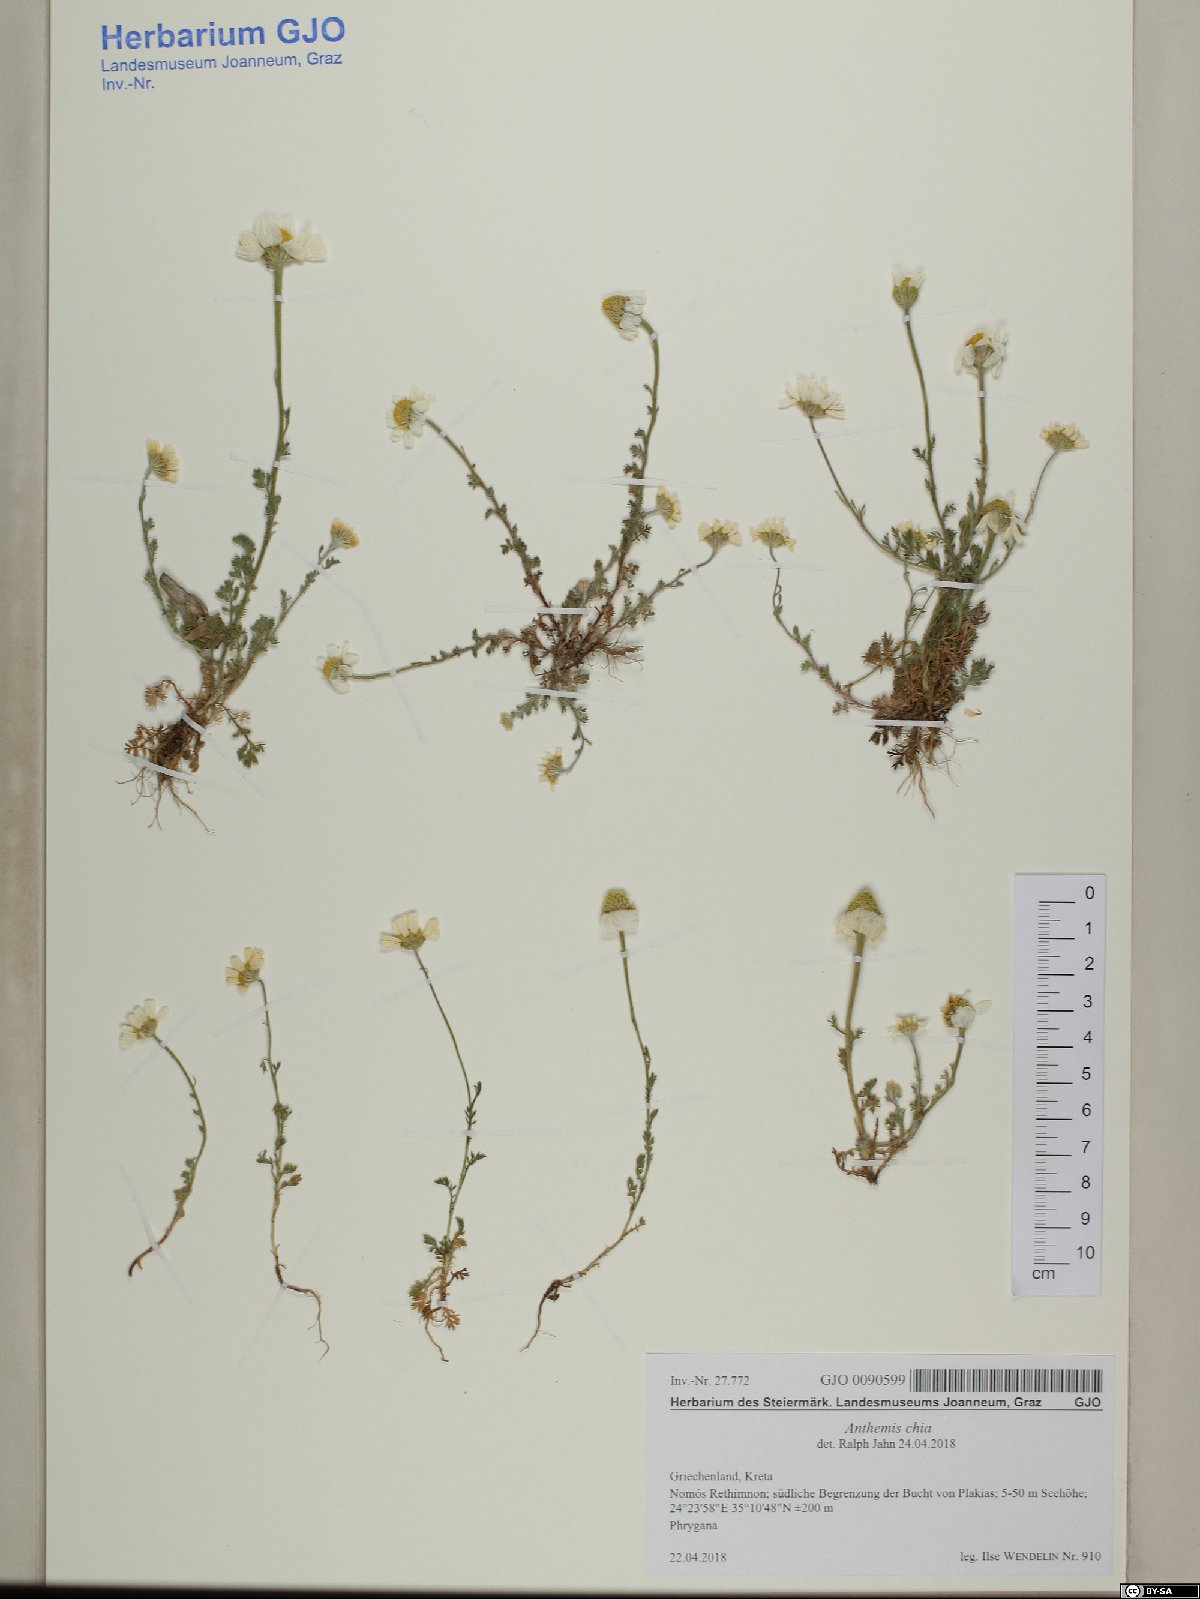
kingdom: Plantae
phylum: Tracheophyta
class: Magnoliopsida
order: Asterales
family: Asteraceae
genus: Anthemis
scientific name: Anthemis chia
